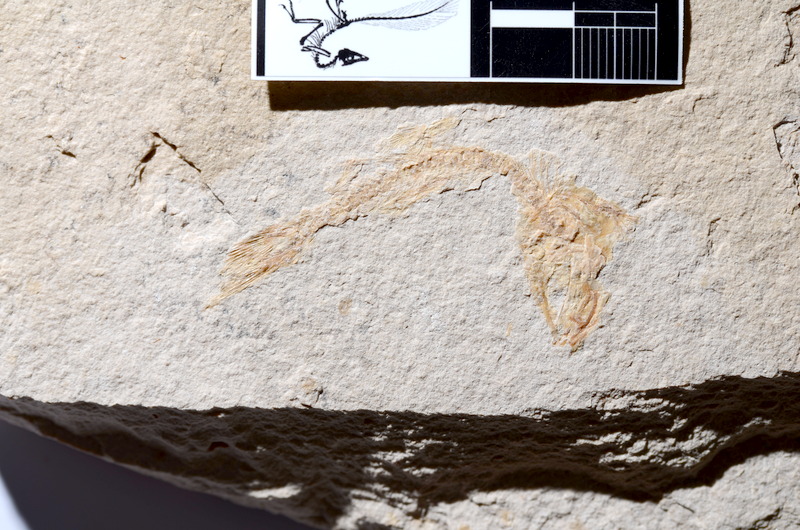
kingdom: Animalia
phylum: Chordata
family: Ascalaboidae
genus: Tharsis
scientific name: Tharsis dubius
